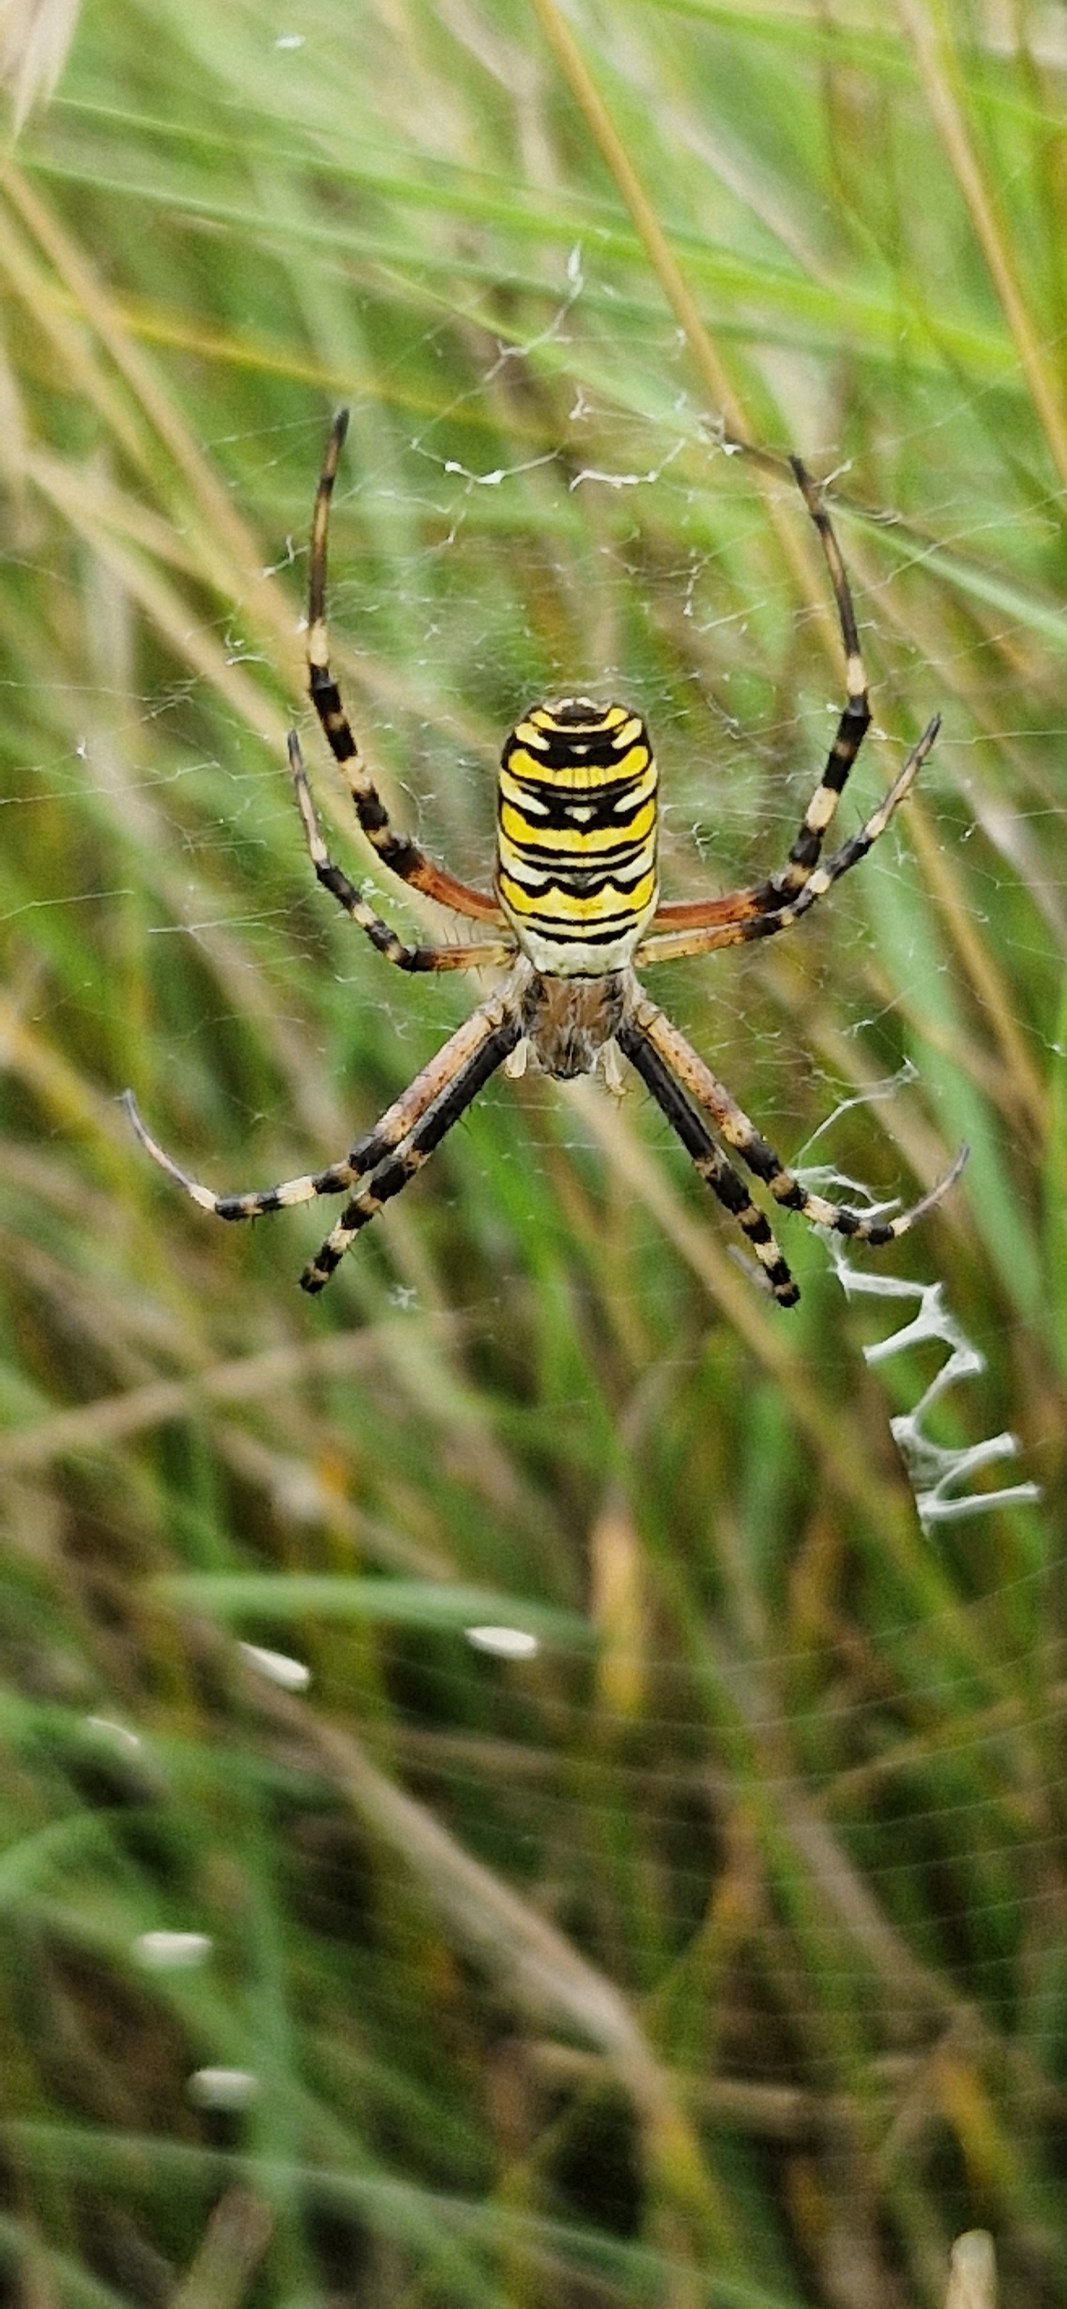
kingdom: Animalia
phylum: Arthropoda
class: Arachnida
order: Araneae
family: Araneidae
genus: Argiope
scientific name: Argiope bruennichi
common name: Hvepseedderkop
